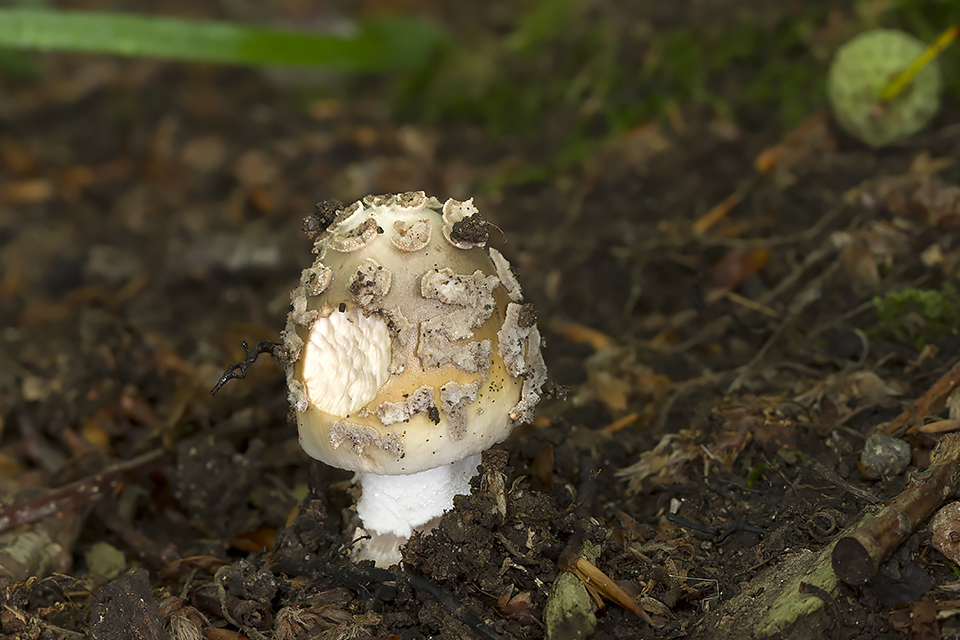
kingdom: Fungi
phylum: Basidiomycota
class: Agaricomycetes
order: Agaricales
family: Amanitaceae
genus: Amanita
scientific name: Amanita ceciliae
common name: stor kam-fluesvamp
